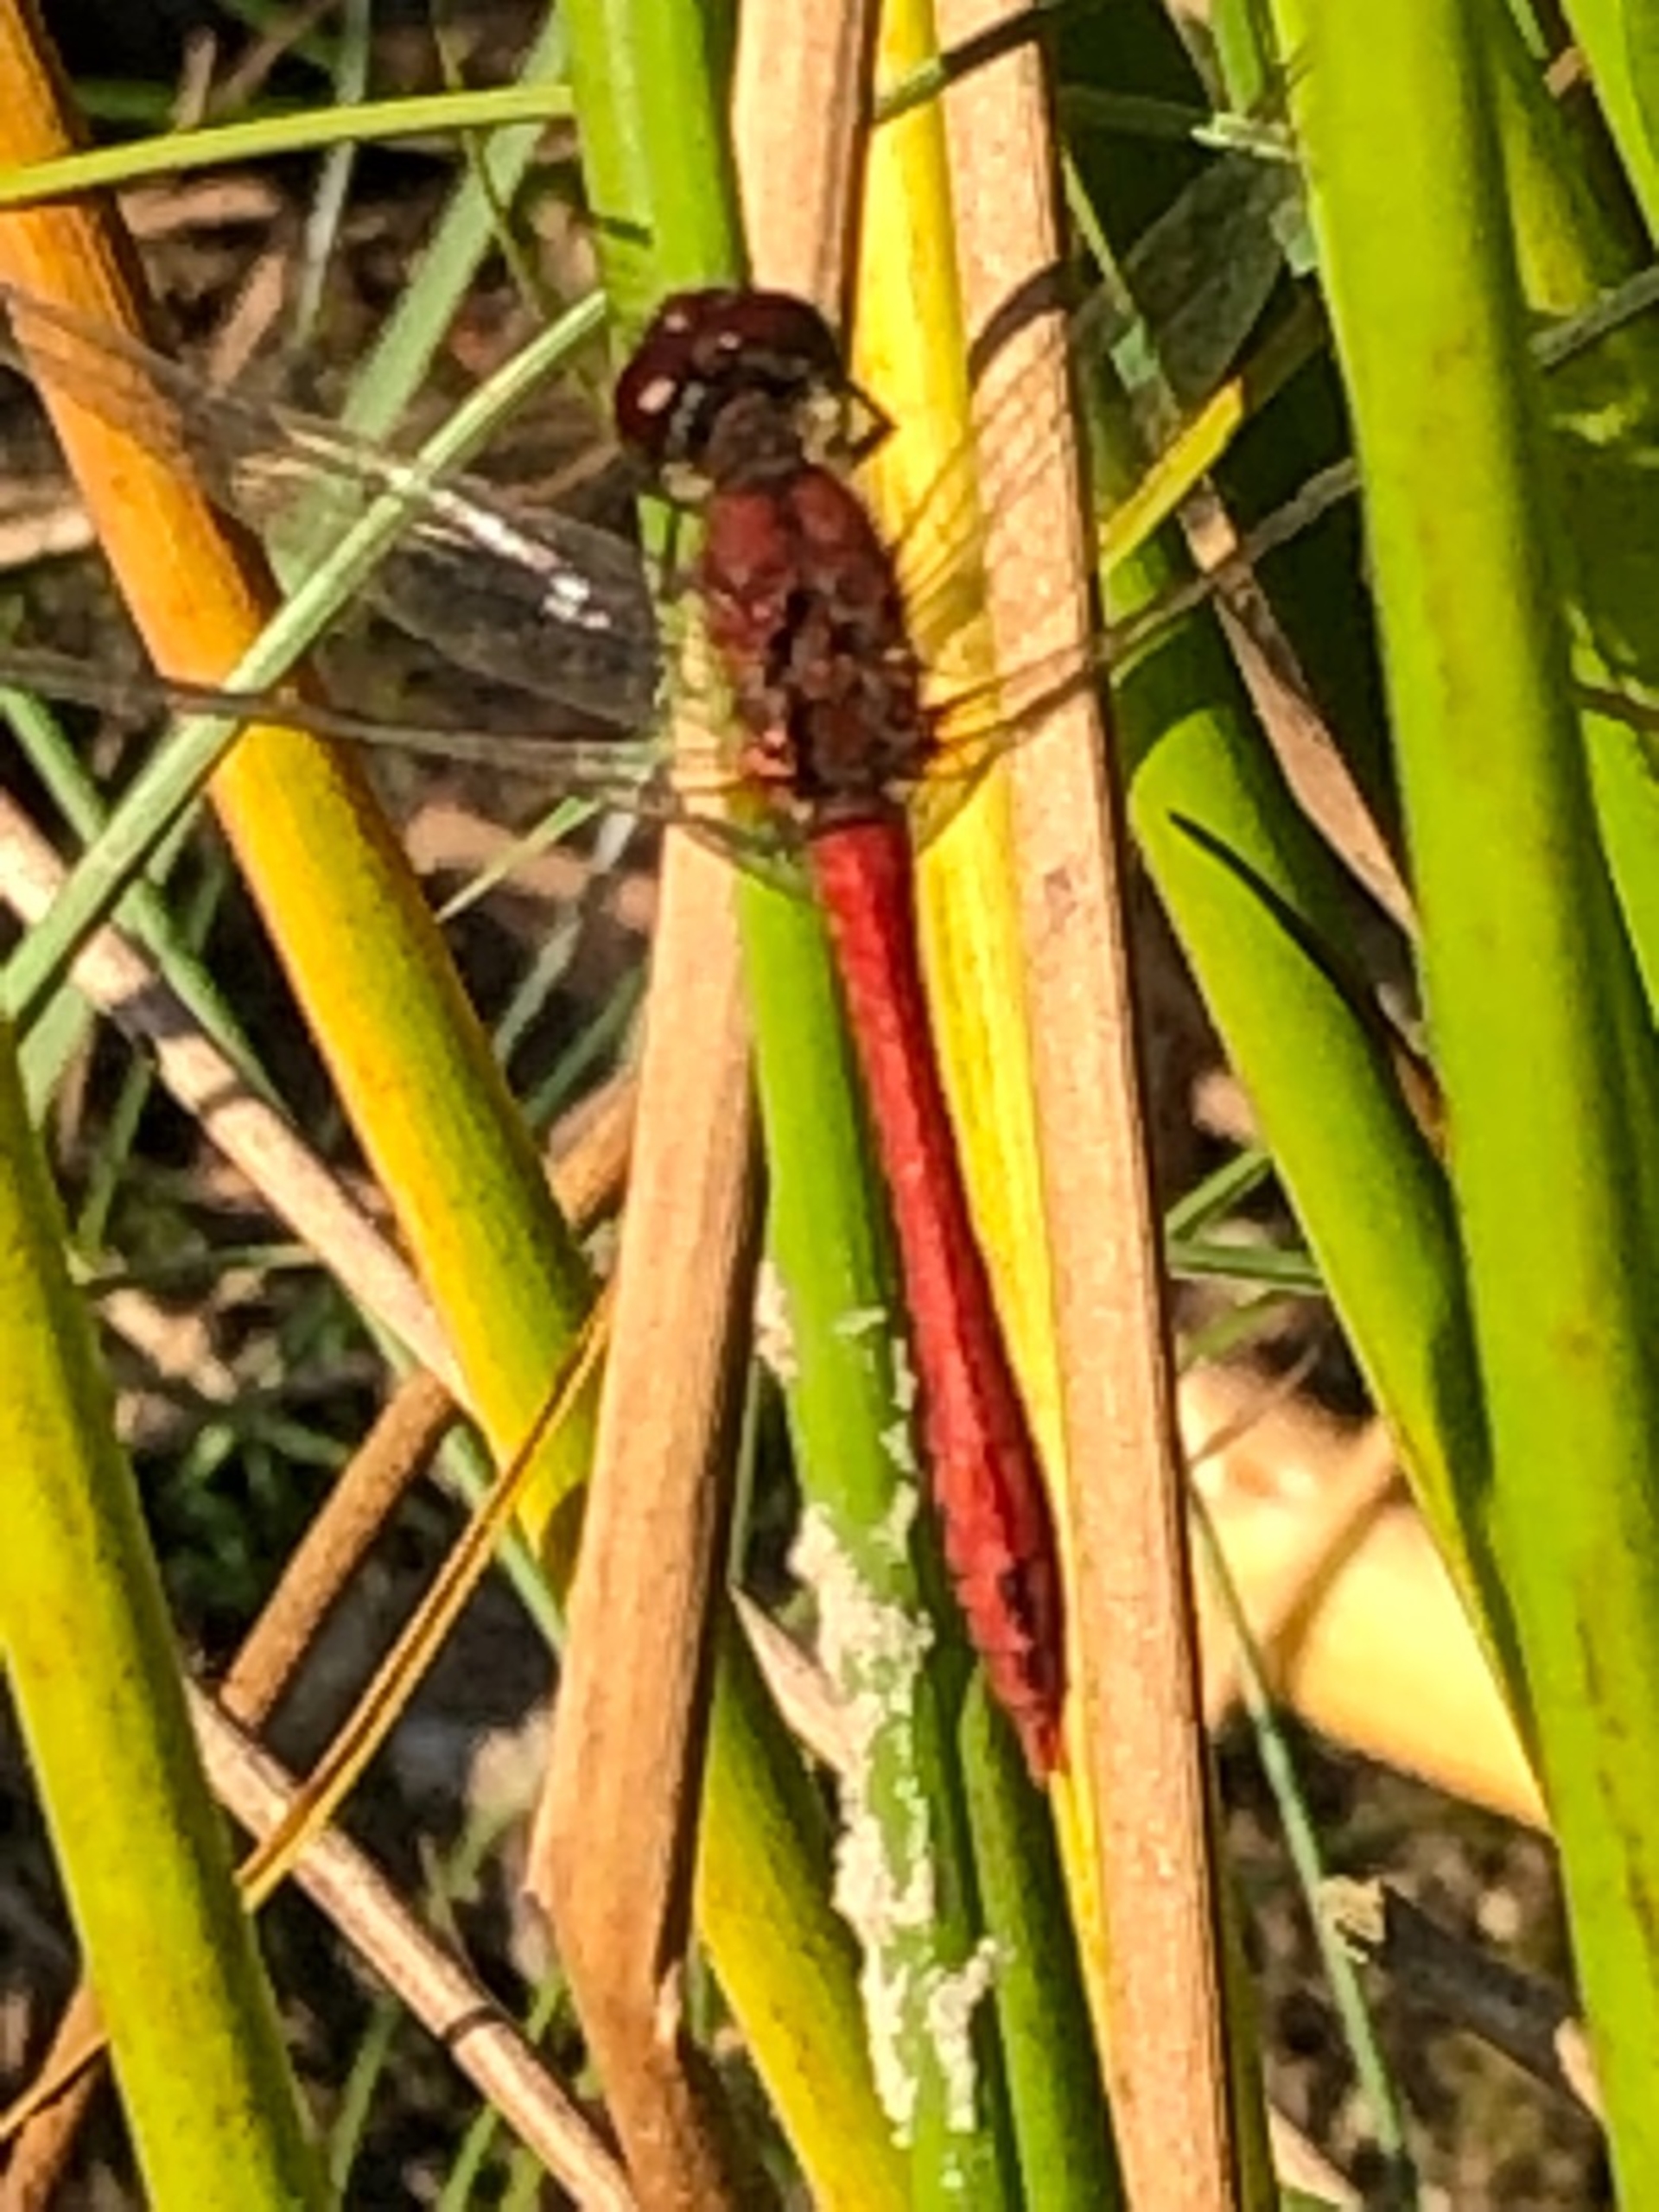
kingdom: Animalia
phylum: Arthropoda
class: Insecta
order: Odonata
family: Libellulidae
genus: Sympetrum
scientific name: Sympetrum sanguineum
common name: Blodrød hedelibel
